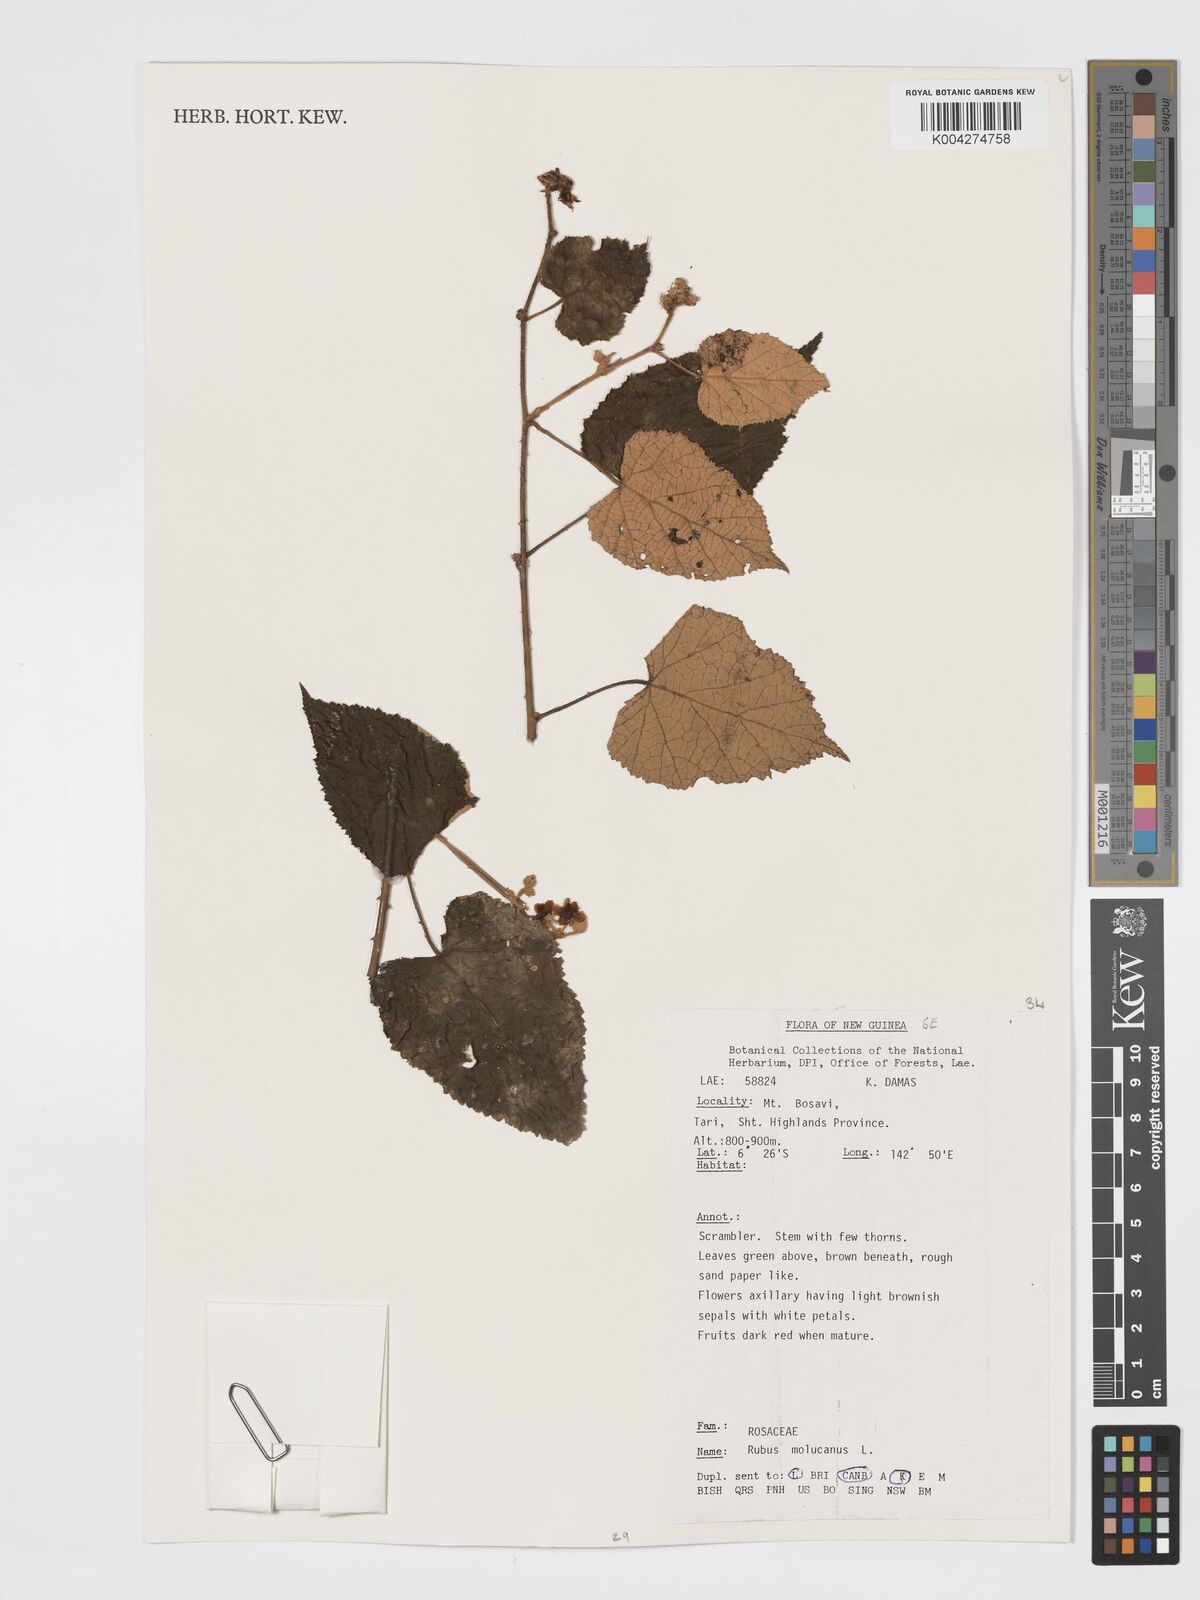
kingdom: Plantae
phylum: Tracheophyta
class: Magnoliopsida
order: Rosales
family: Rosaceae
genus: Rubus
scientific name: Rubus moluccanus
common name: Wild raspberry
